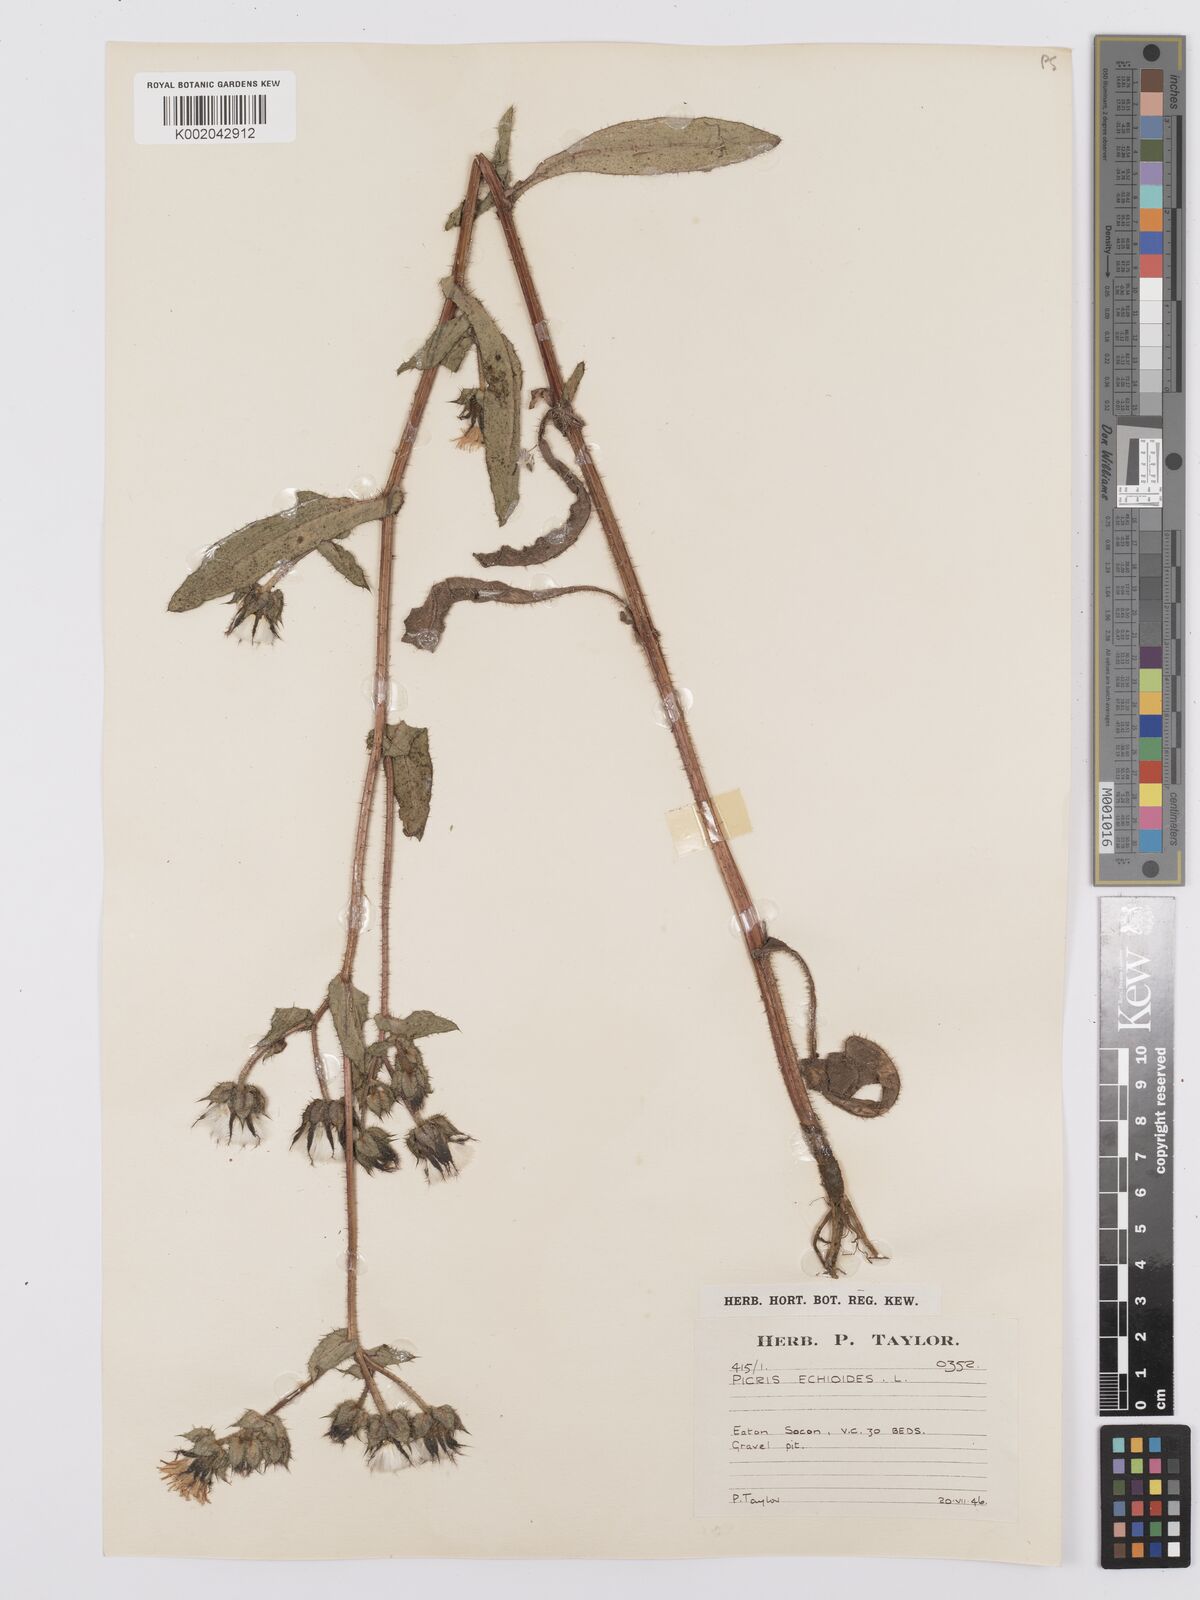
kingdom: Plantae
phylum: Tracheophyta
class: Magnoliopsida
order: Asterales
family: Asteraceae
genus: Helminthotheca
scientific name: Helminthotheca echioides
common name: Ox-tongue
